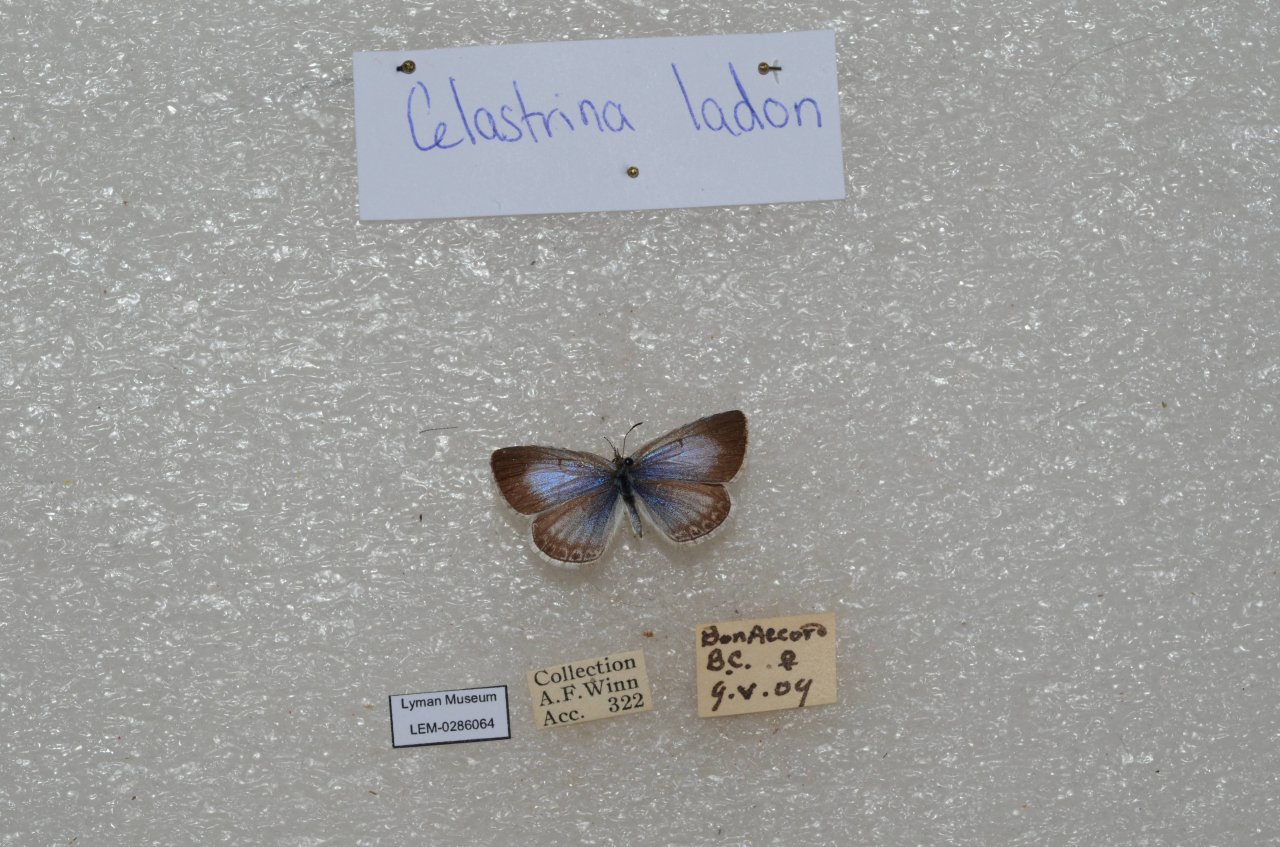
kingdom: Animalia
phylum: Arthropoda
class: Insecta
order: Lepidoptera
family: Lycaenidae
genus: Celastrina
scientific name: Celastrina
